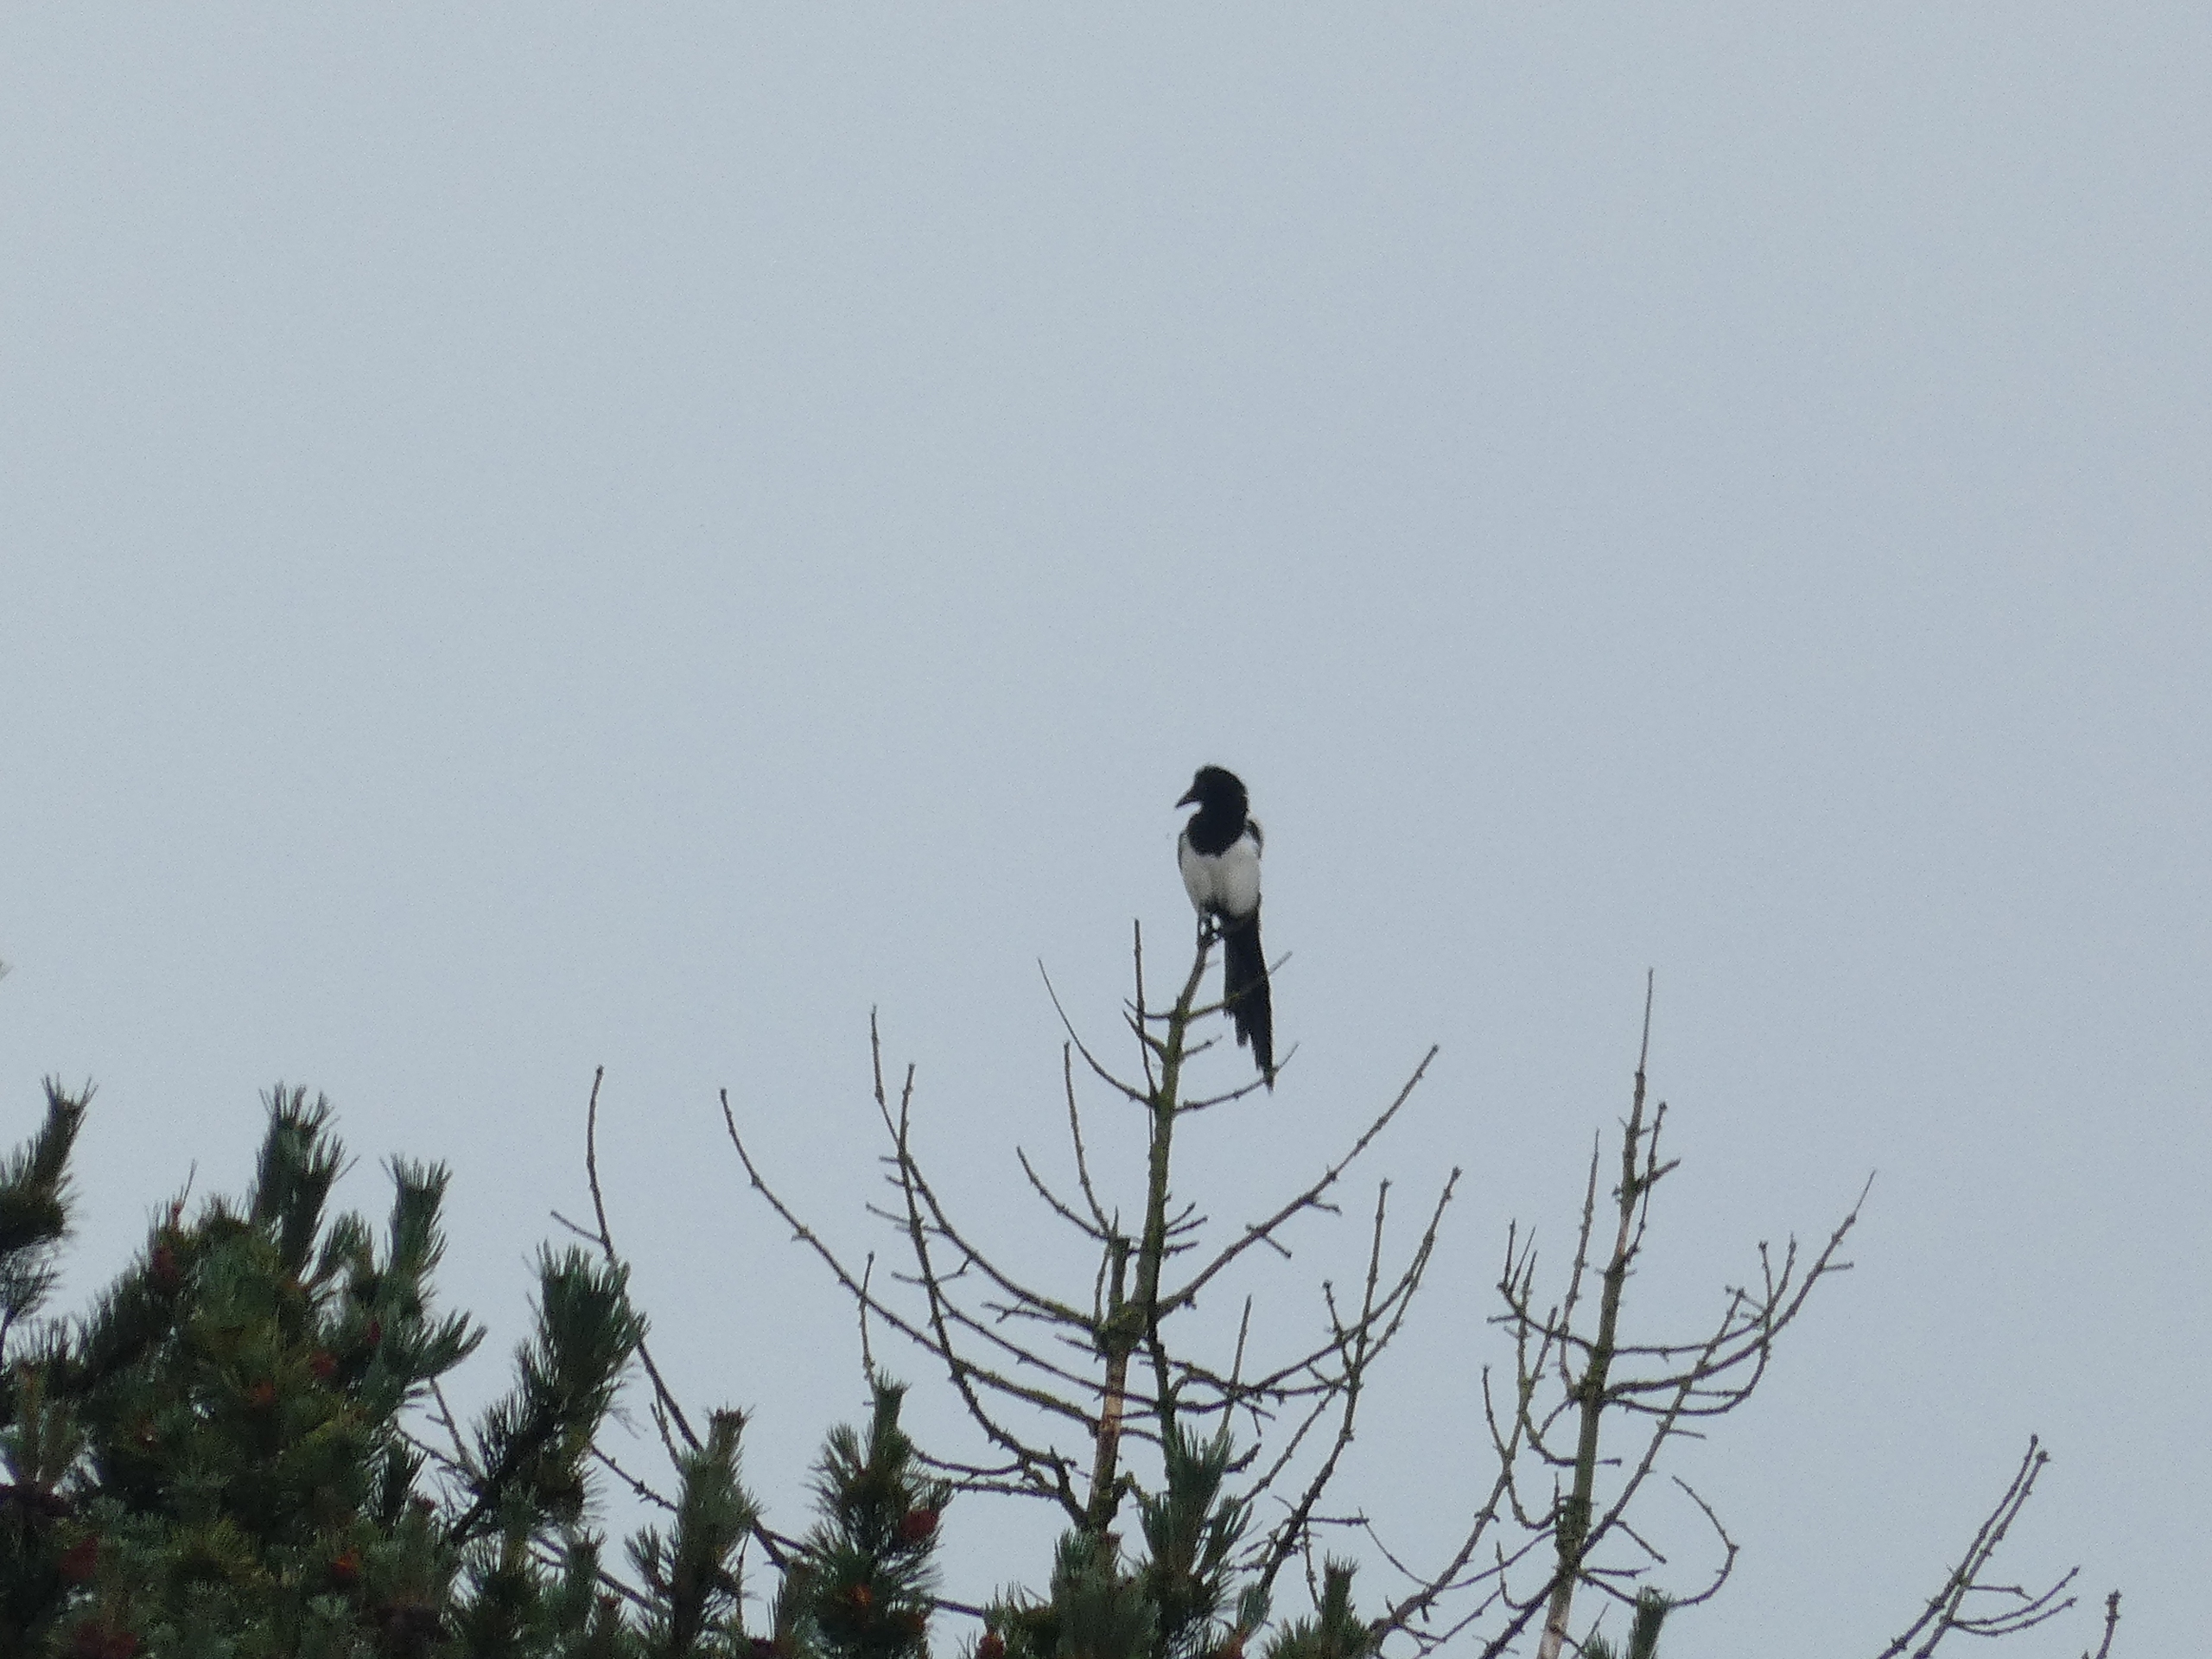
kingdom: Animalia
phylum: Chordata
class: Aves
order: Passeriformes
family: Corvidae
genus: Pica
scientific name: Pica pica
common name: Husskade
